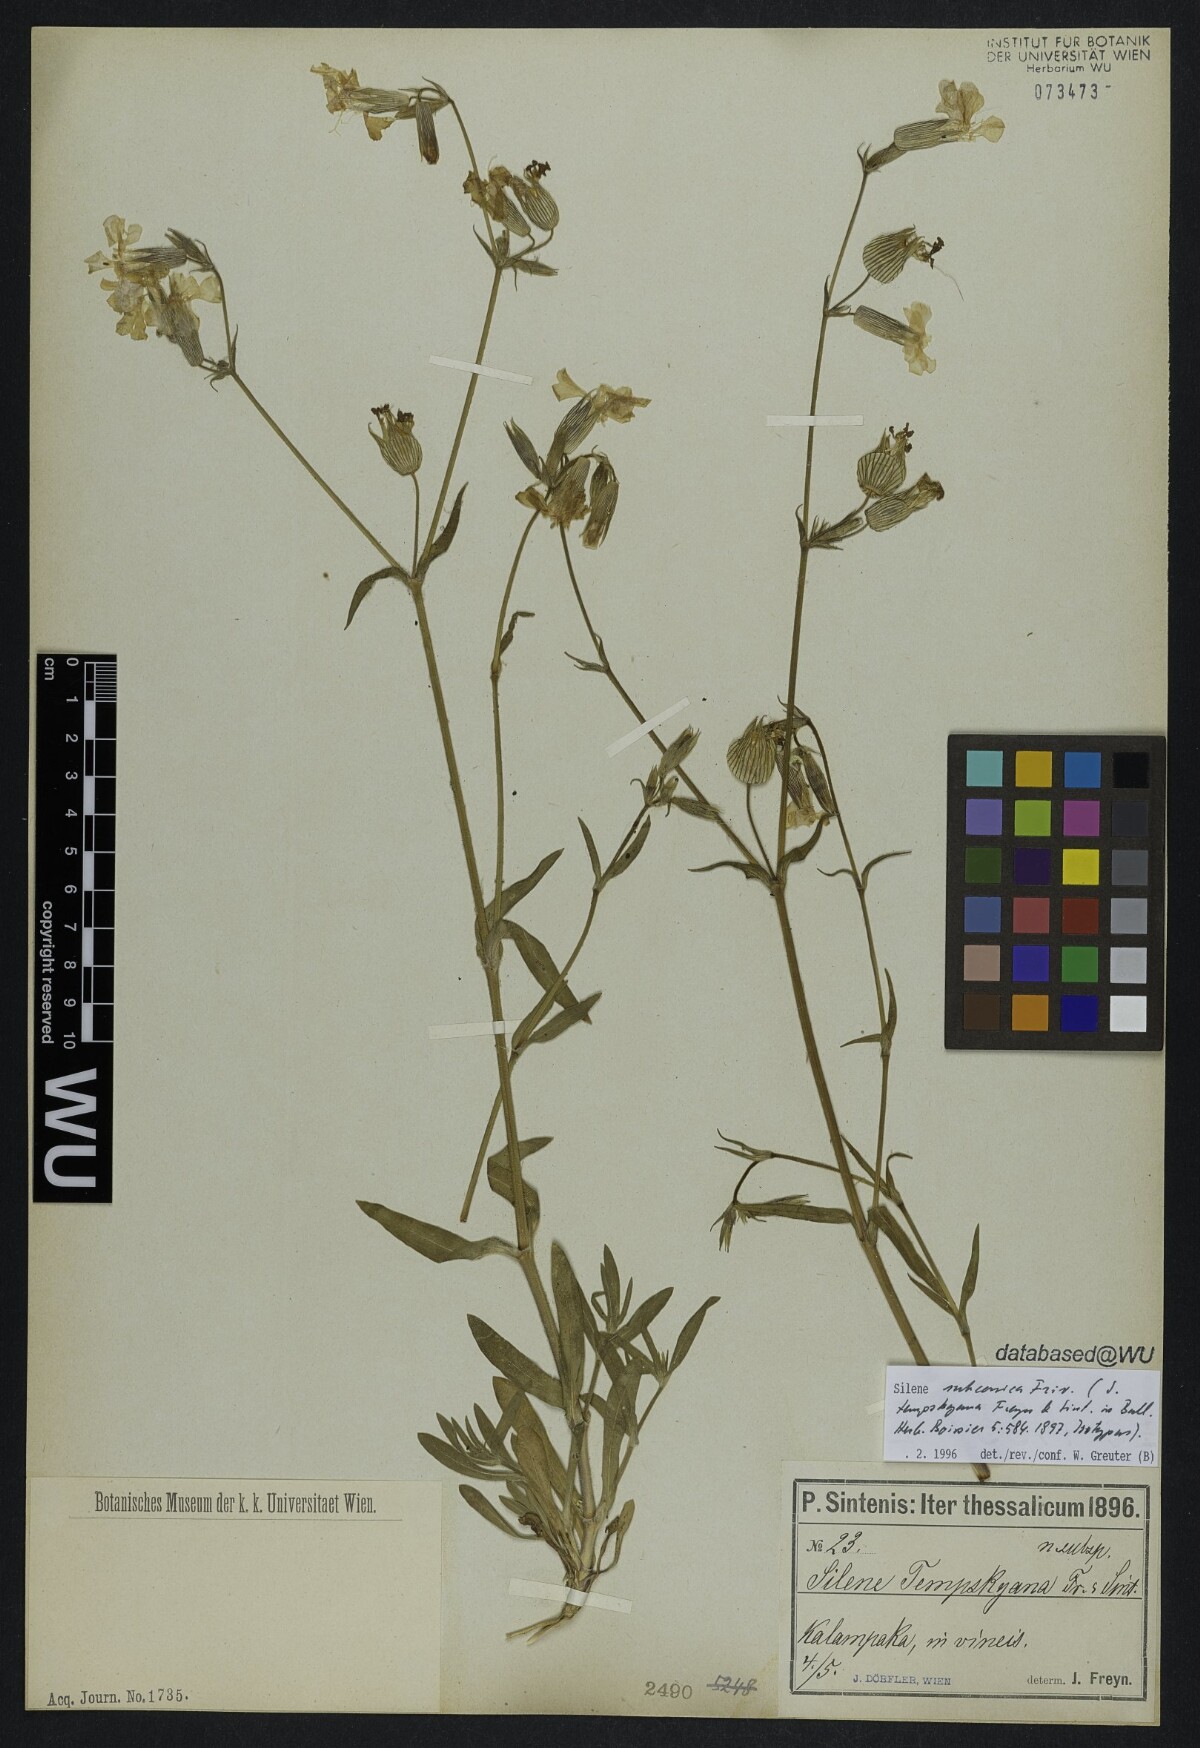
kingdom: Plantae
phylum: Tracheophyta
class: Magnoliopsida
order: Caryophyllales
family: Caryophyllaceae
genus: Silene
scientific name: Silene subconica
